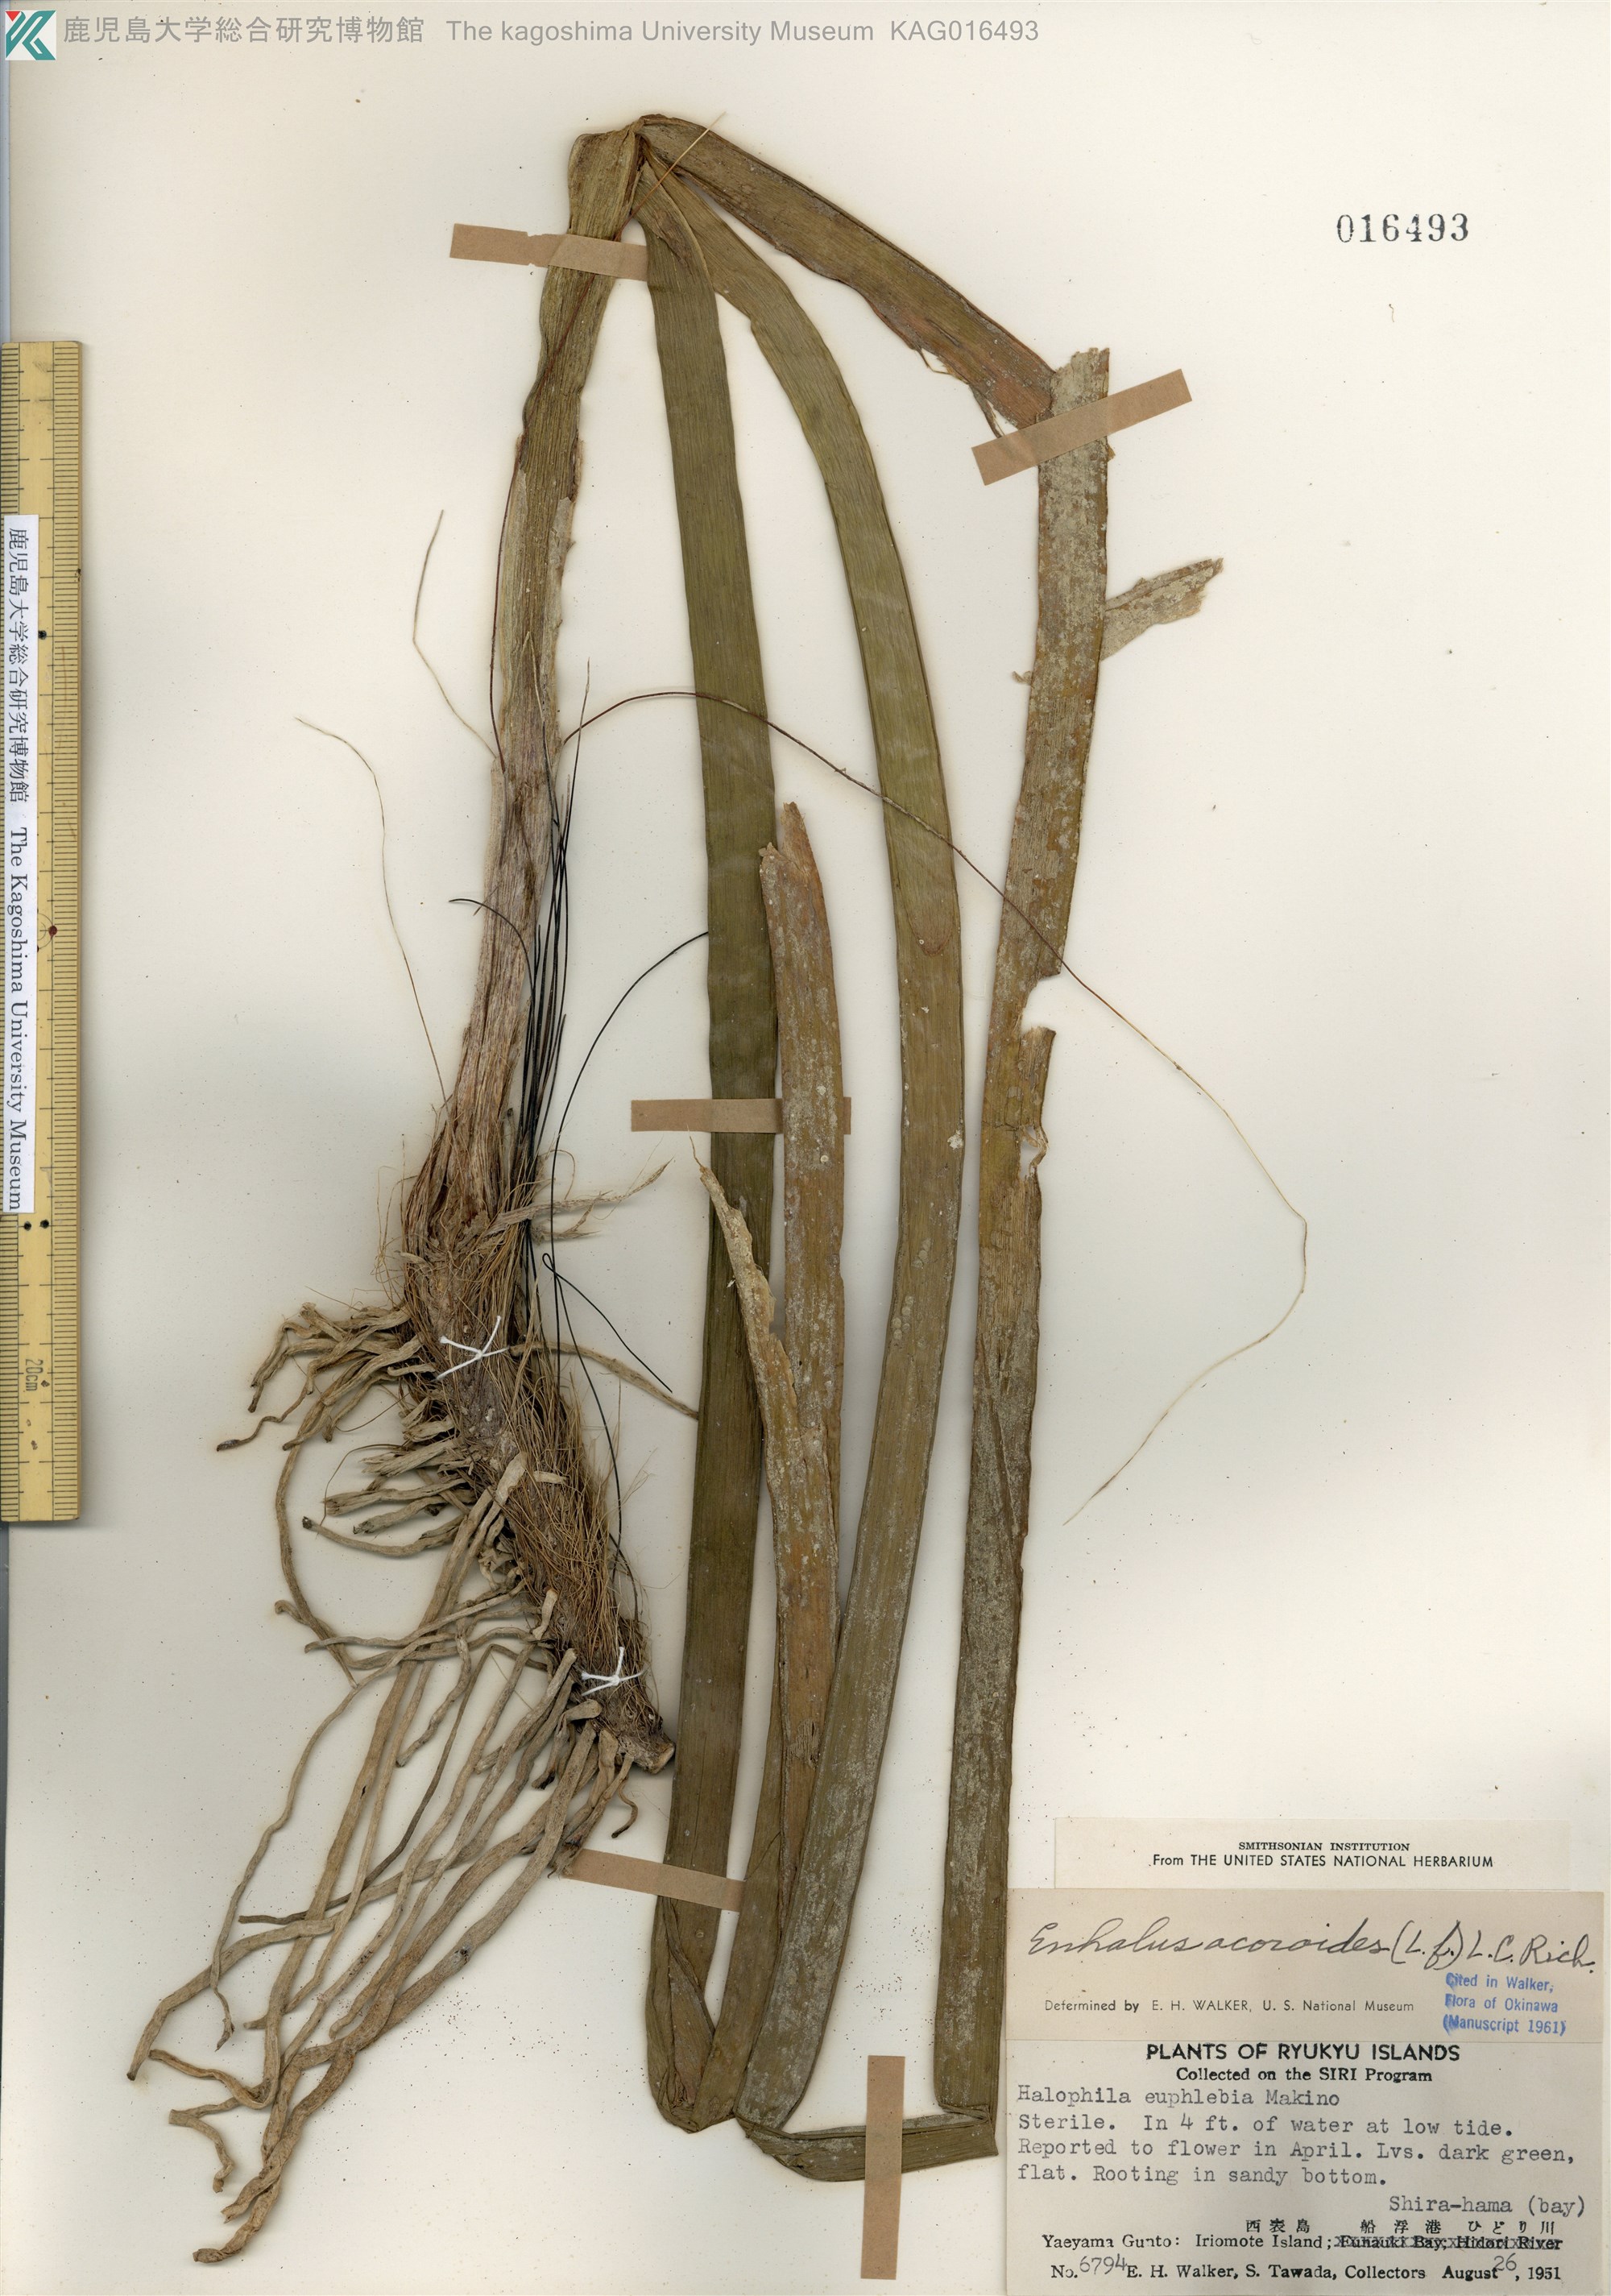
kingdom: Plantae
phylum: Tracheophyta
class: Liliopsida
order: Alismatales
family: Hydrocharitaceae
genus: Enhalus
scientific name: Enhalus acoroides
